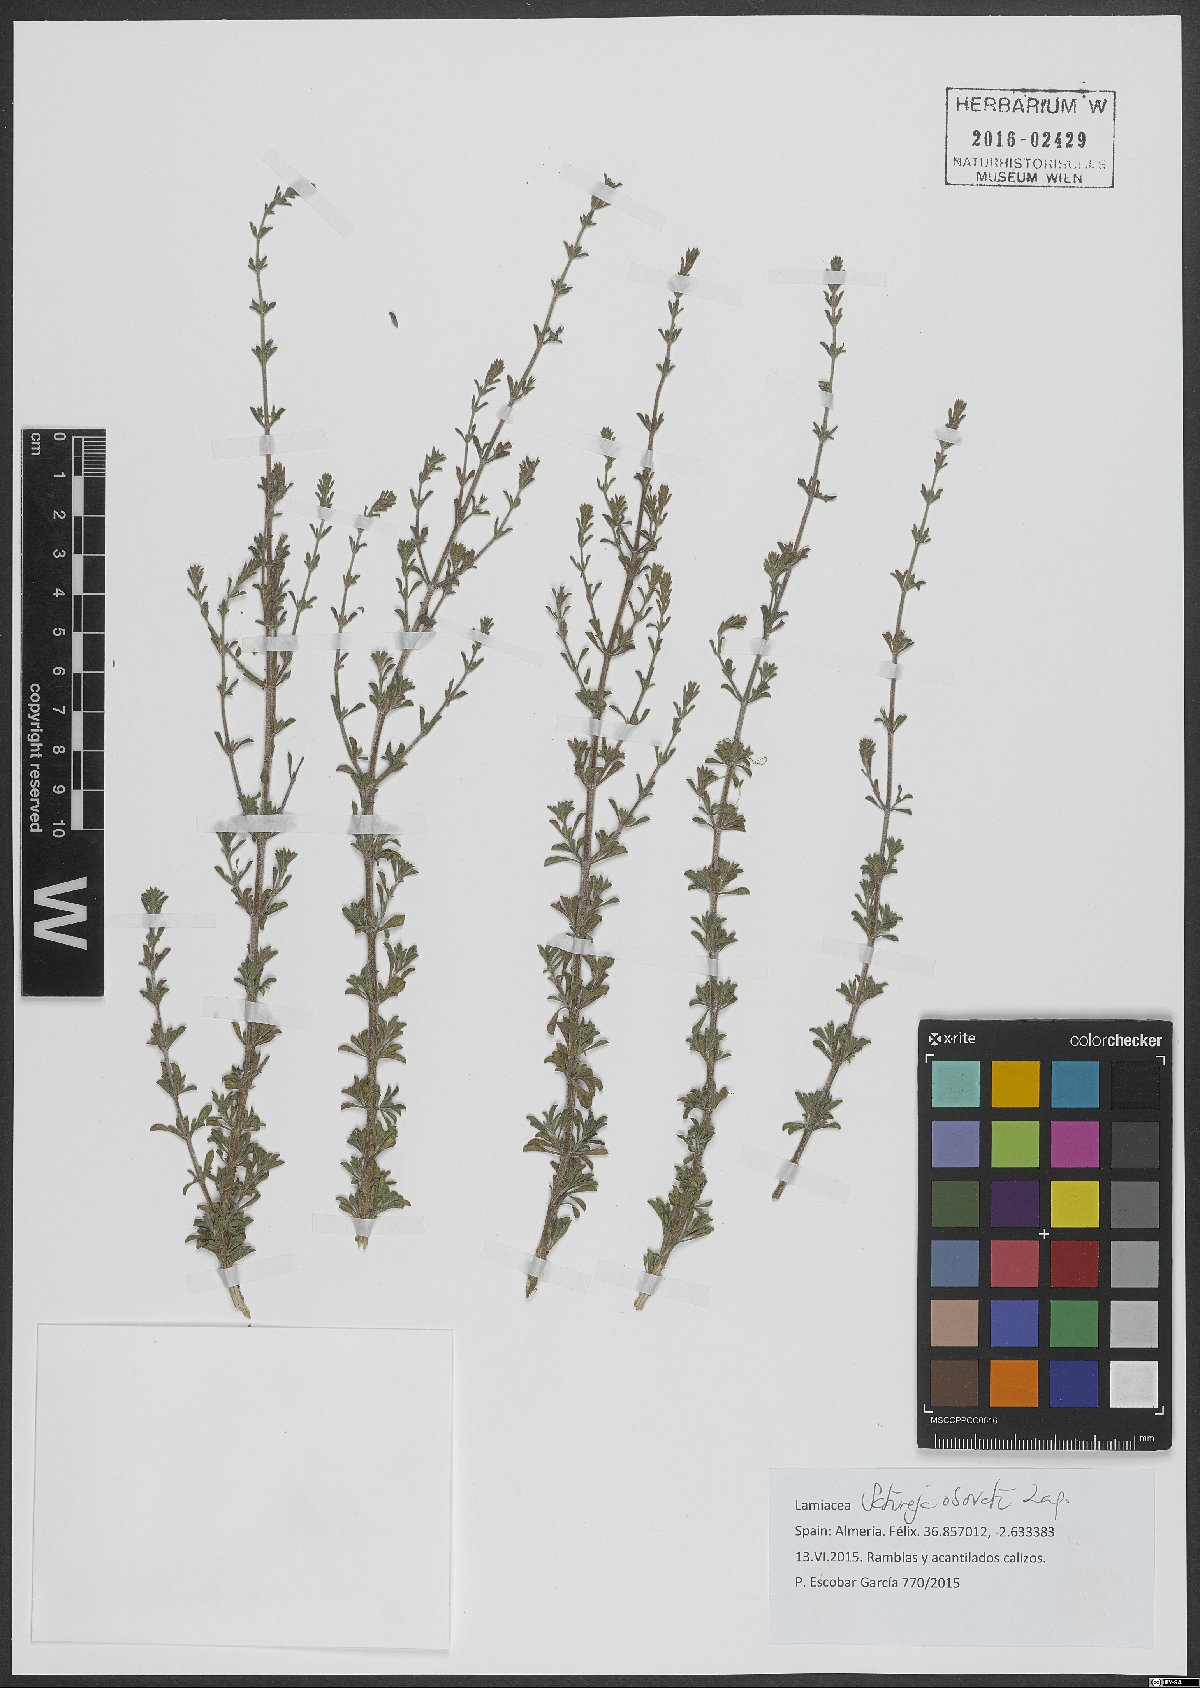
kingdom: Plantae
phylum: Tracheophyta
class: Magnoliopsida
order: Lamiales
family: Lamiaceae
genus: Satureja
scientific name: Satureja cuneifolia
